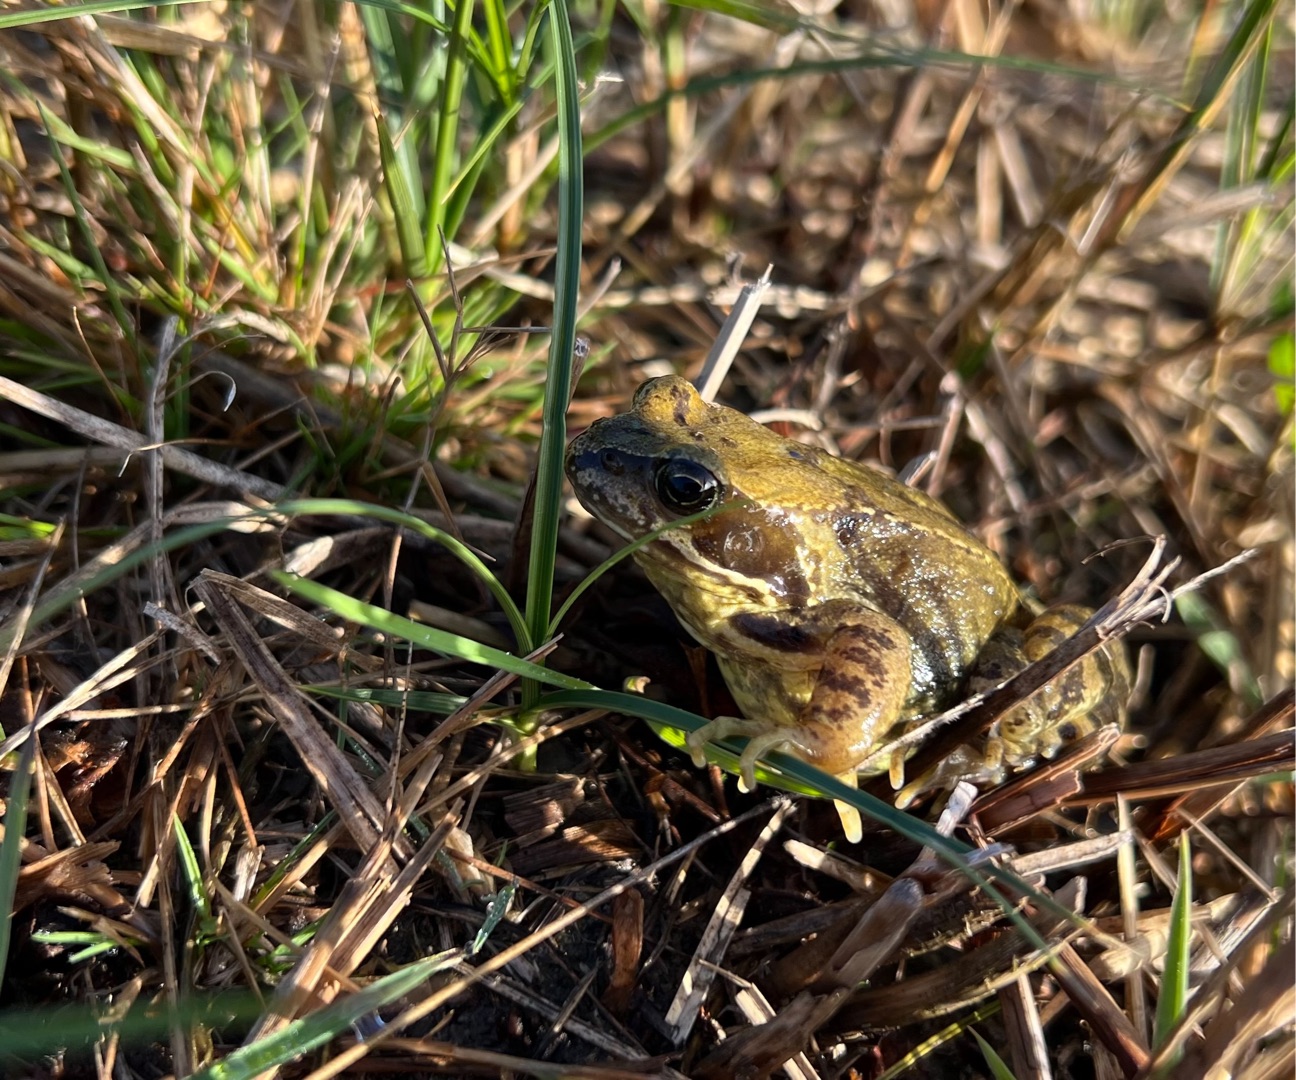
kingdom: Animalia
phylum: Chordata
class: Amphibia
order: Anura
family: Ranidae
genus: Rana
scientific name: Rana temporaria
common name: Butsnudet frø
